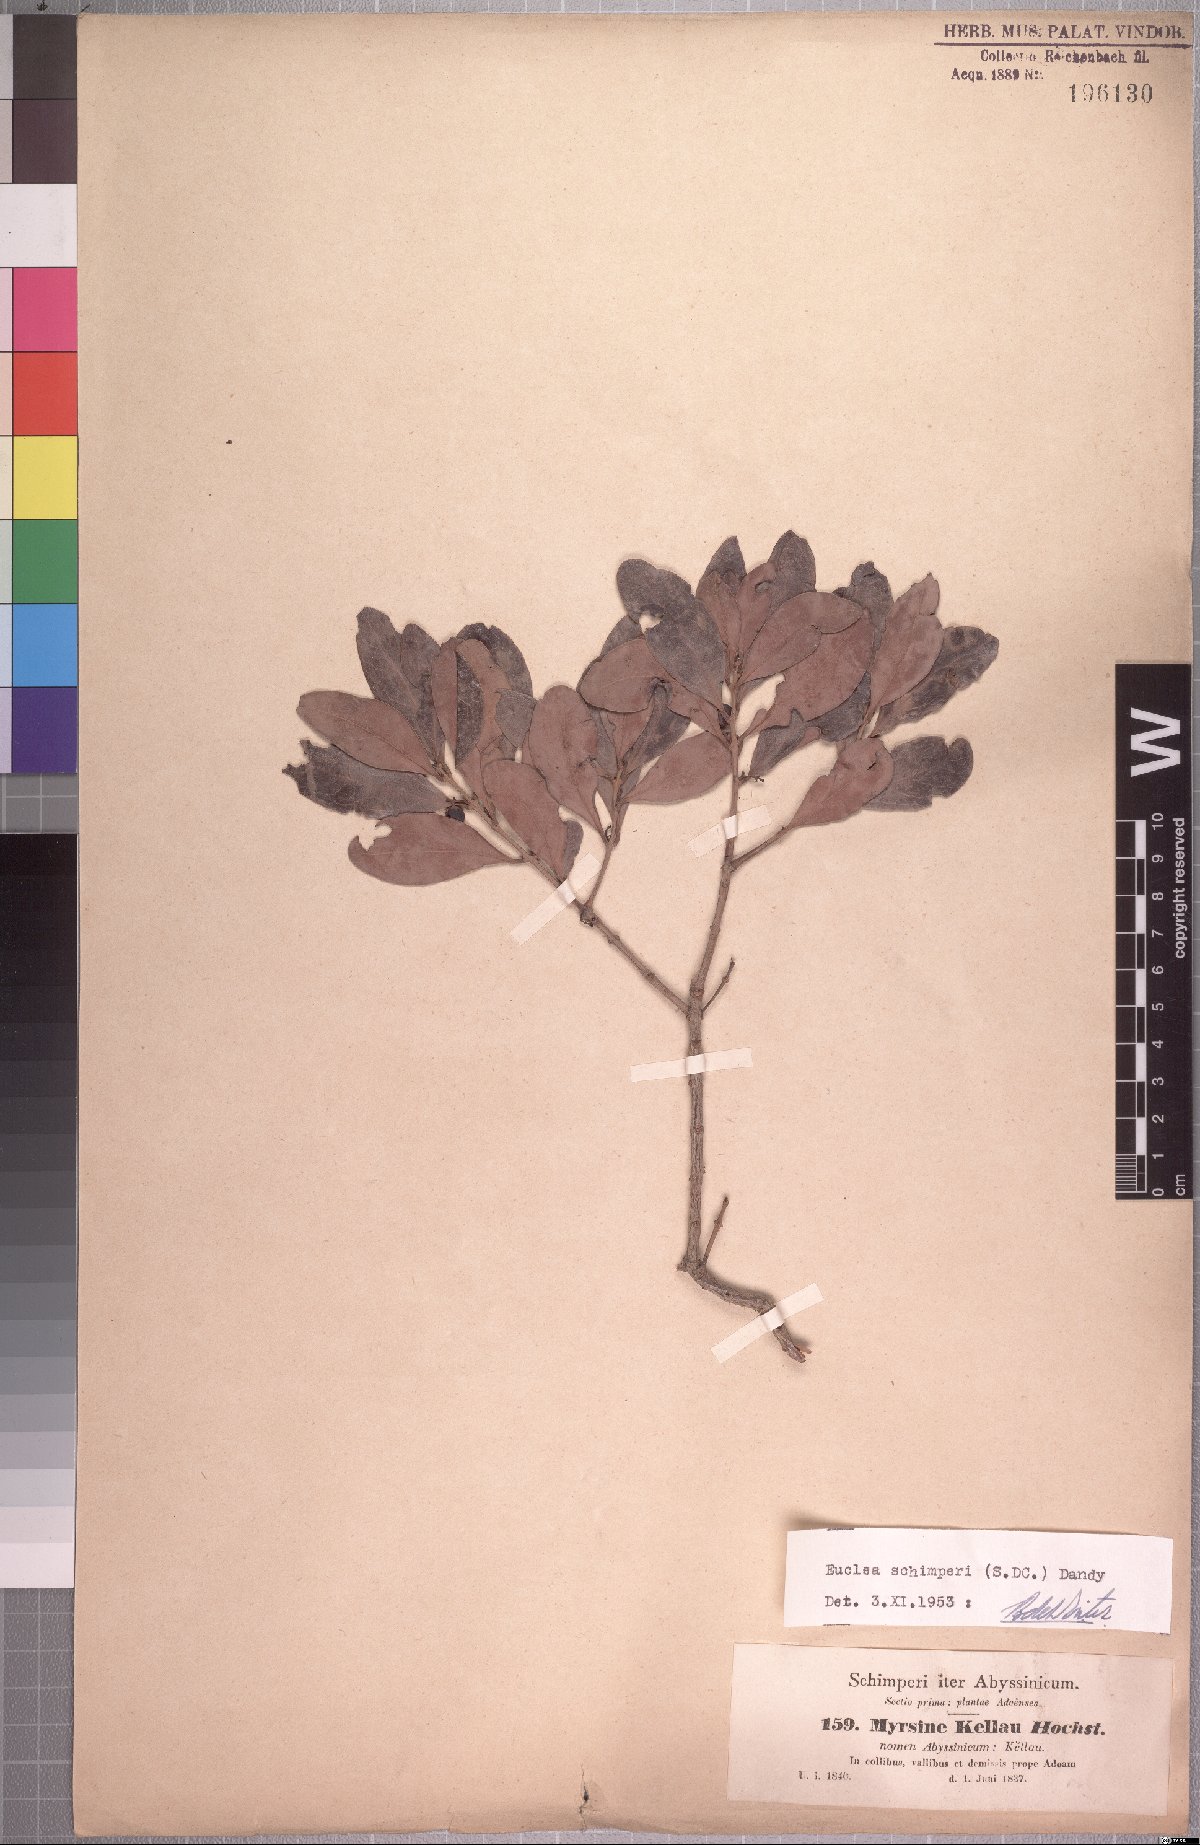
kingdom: Plantae
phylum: Tracheophyta
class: Magnoliopsida
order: Ericales
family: Ebenaceae
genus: Euclea
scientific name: Euclea racemosa
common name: Dune guarri
